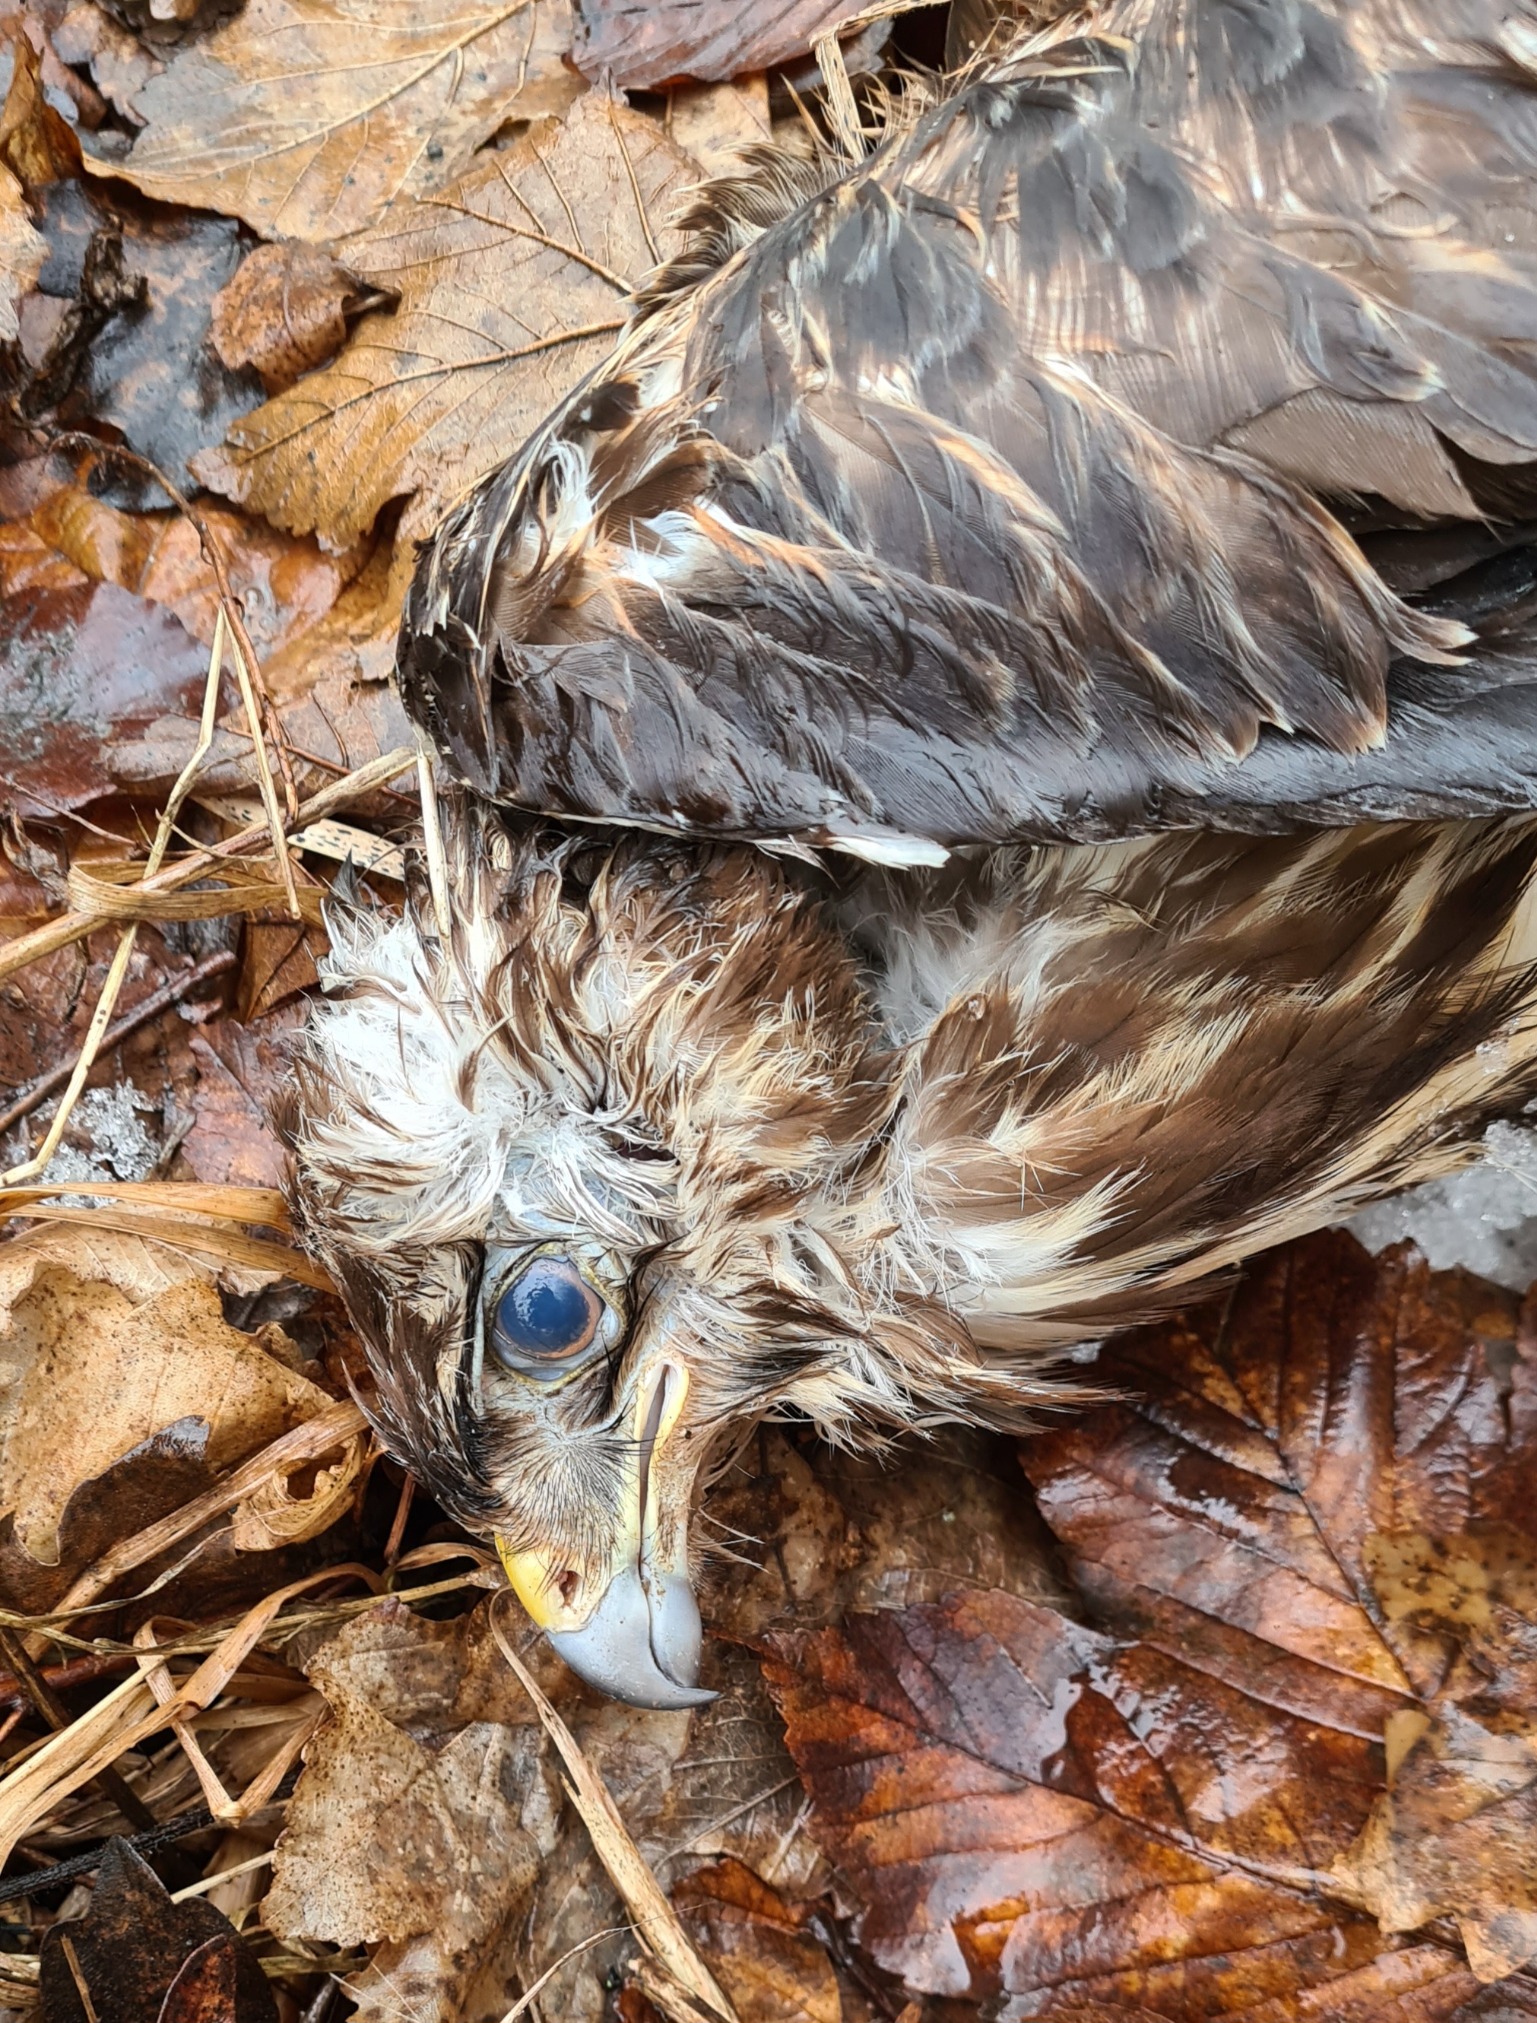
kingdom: Animalia
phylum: Chordata
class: Aves
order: Accipitriformes
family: Accipitridae
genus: Buteo
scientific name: Buteo buteo
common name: Musvåge
